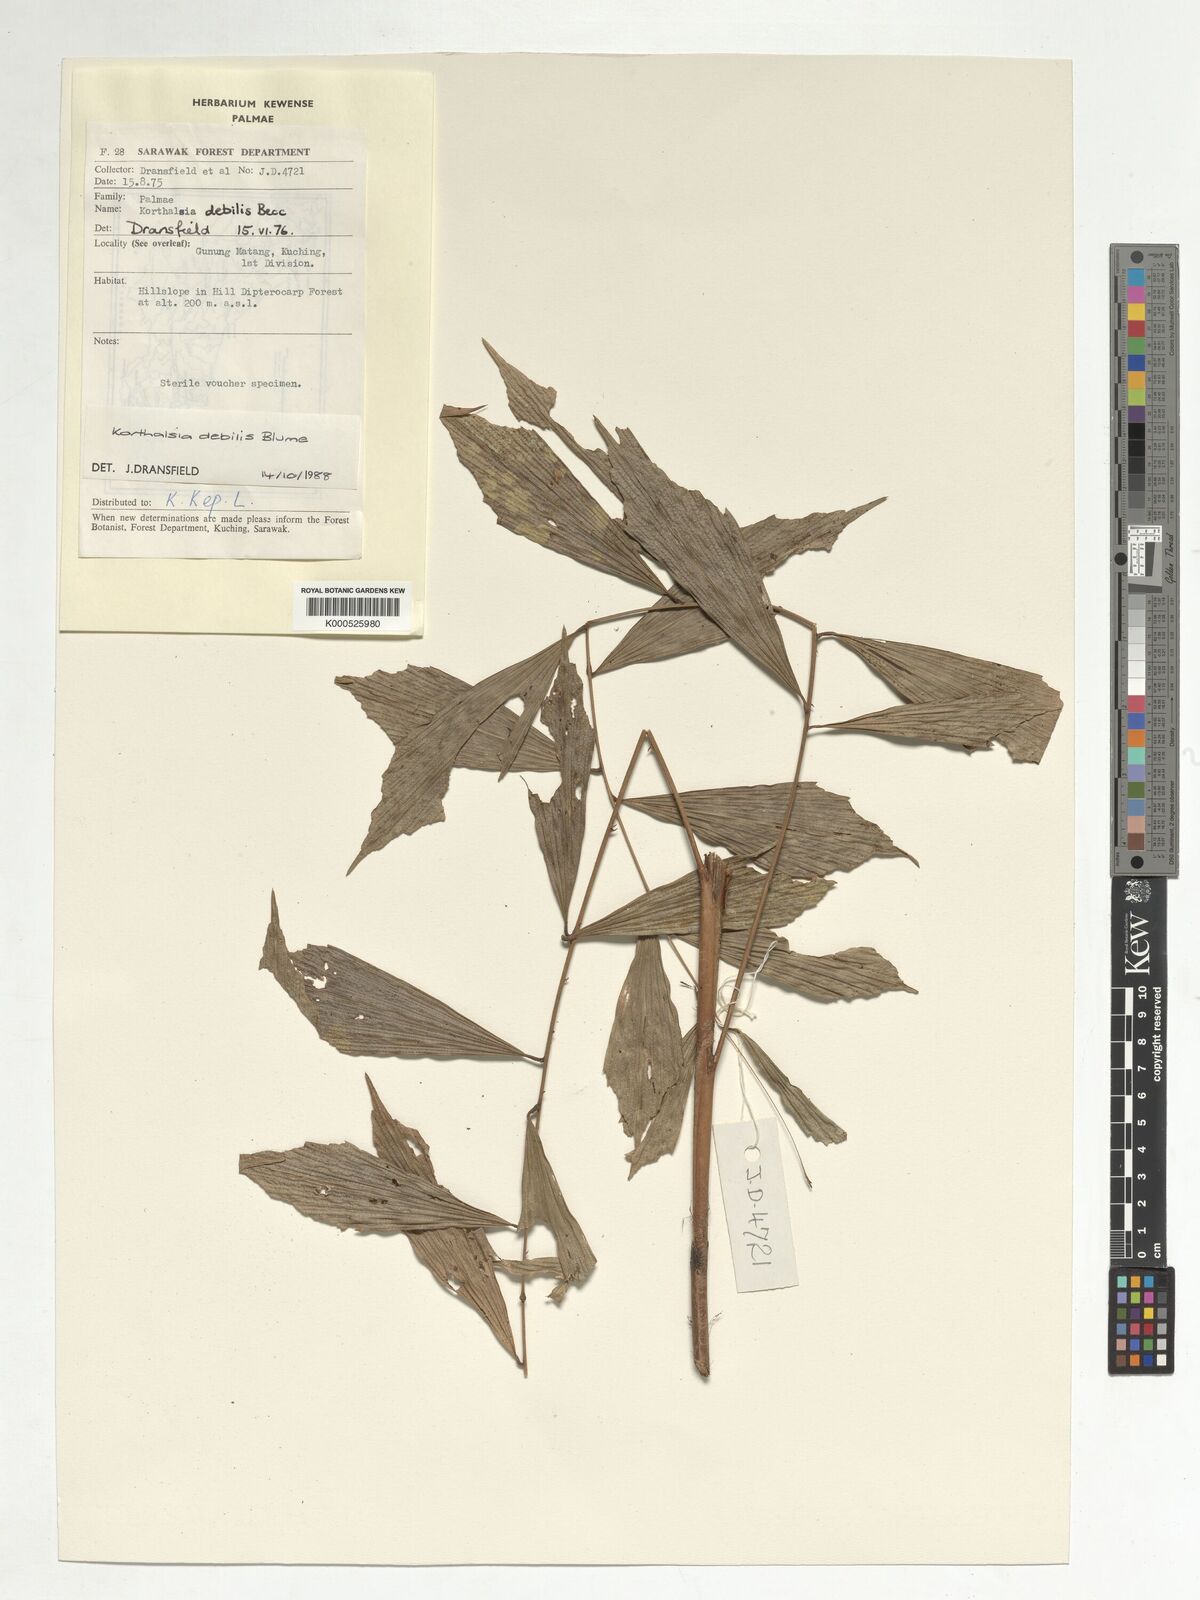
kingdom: Plantae
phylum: Tracheophyta
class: Liliopsida
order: Arecales
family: Arecaceae
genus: Korthalsia
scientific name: Korthalsia debilis
